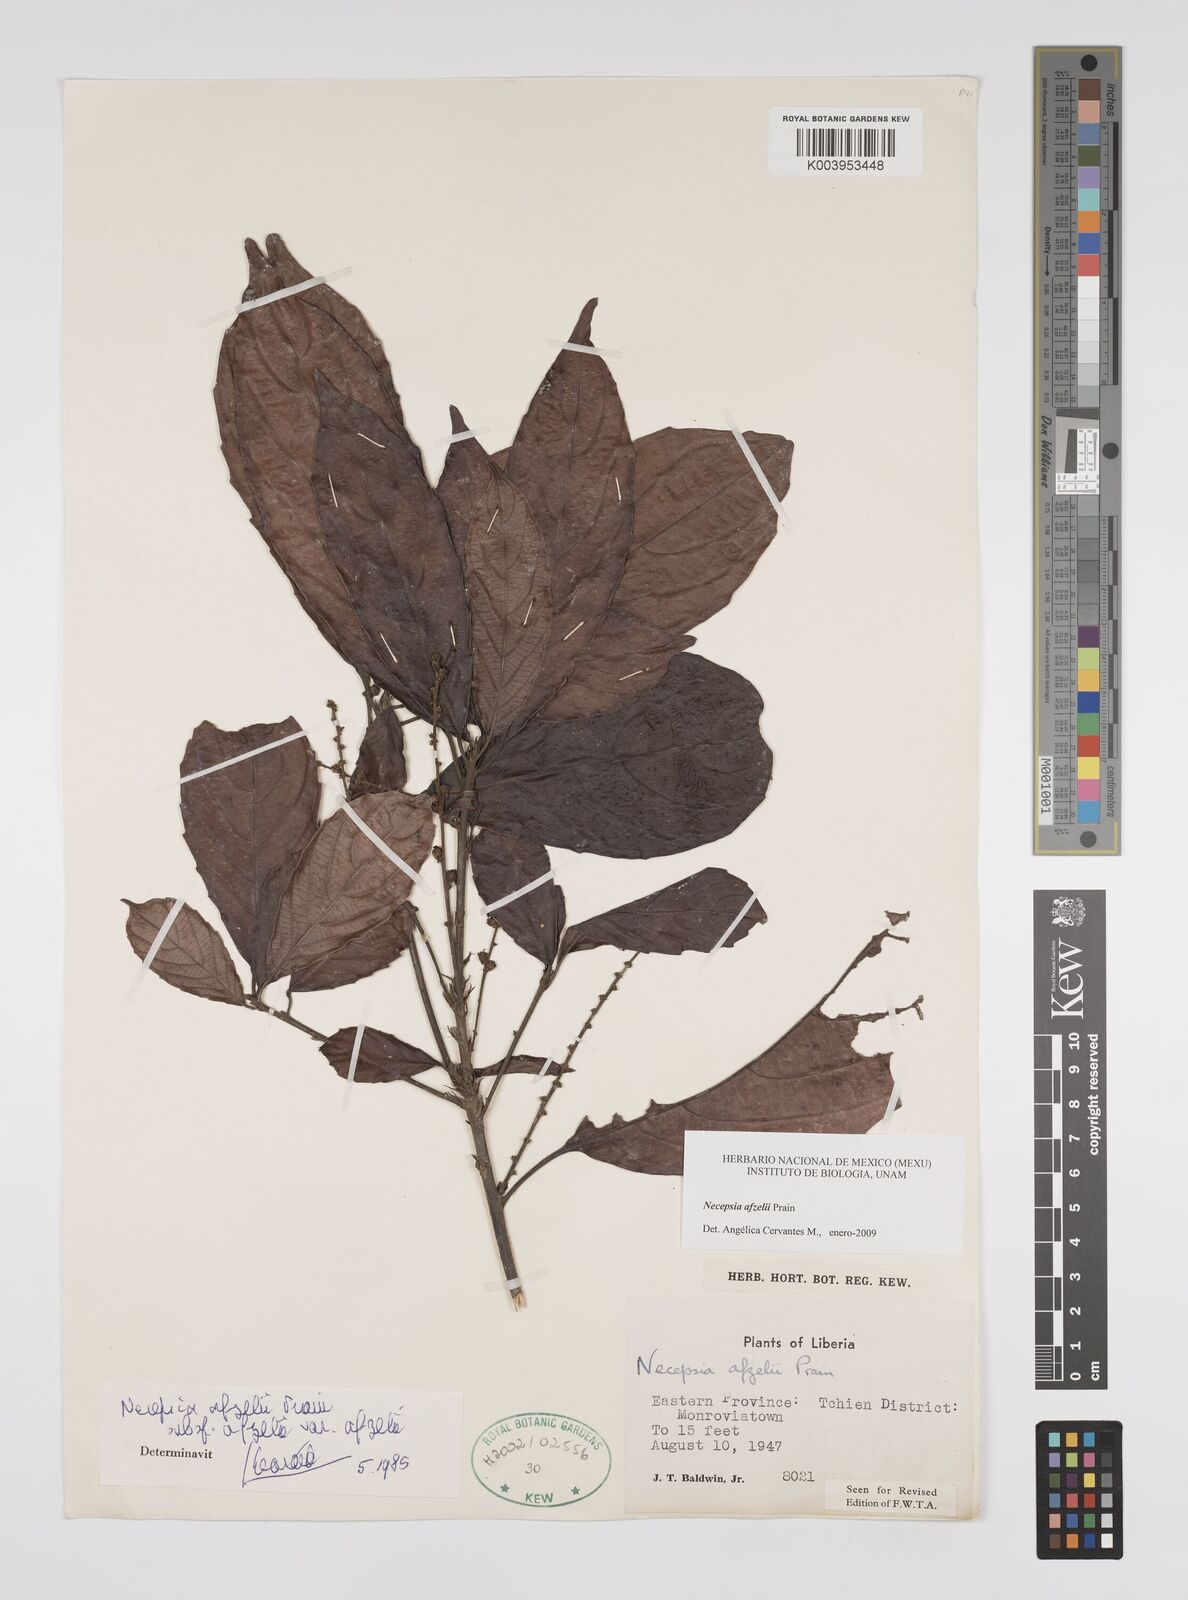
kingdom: Plantae
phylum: Tracheophyta
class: Magnoliopsida
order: Malpighiales
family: Euphorbiaceae
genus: Necepsia
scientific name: Necepsia afzelii
